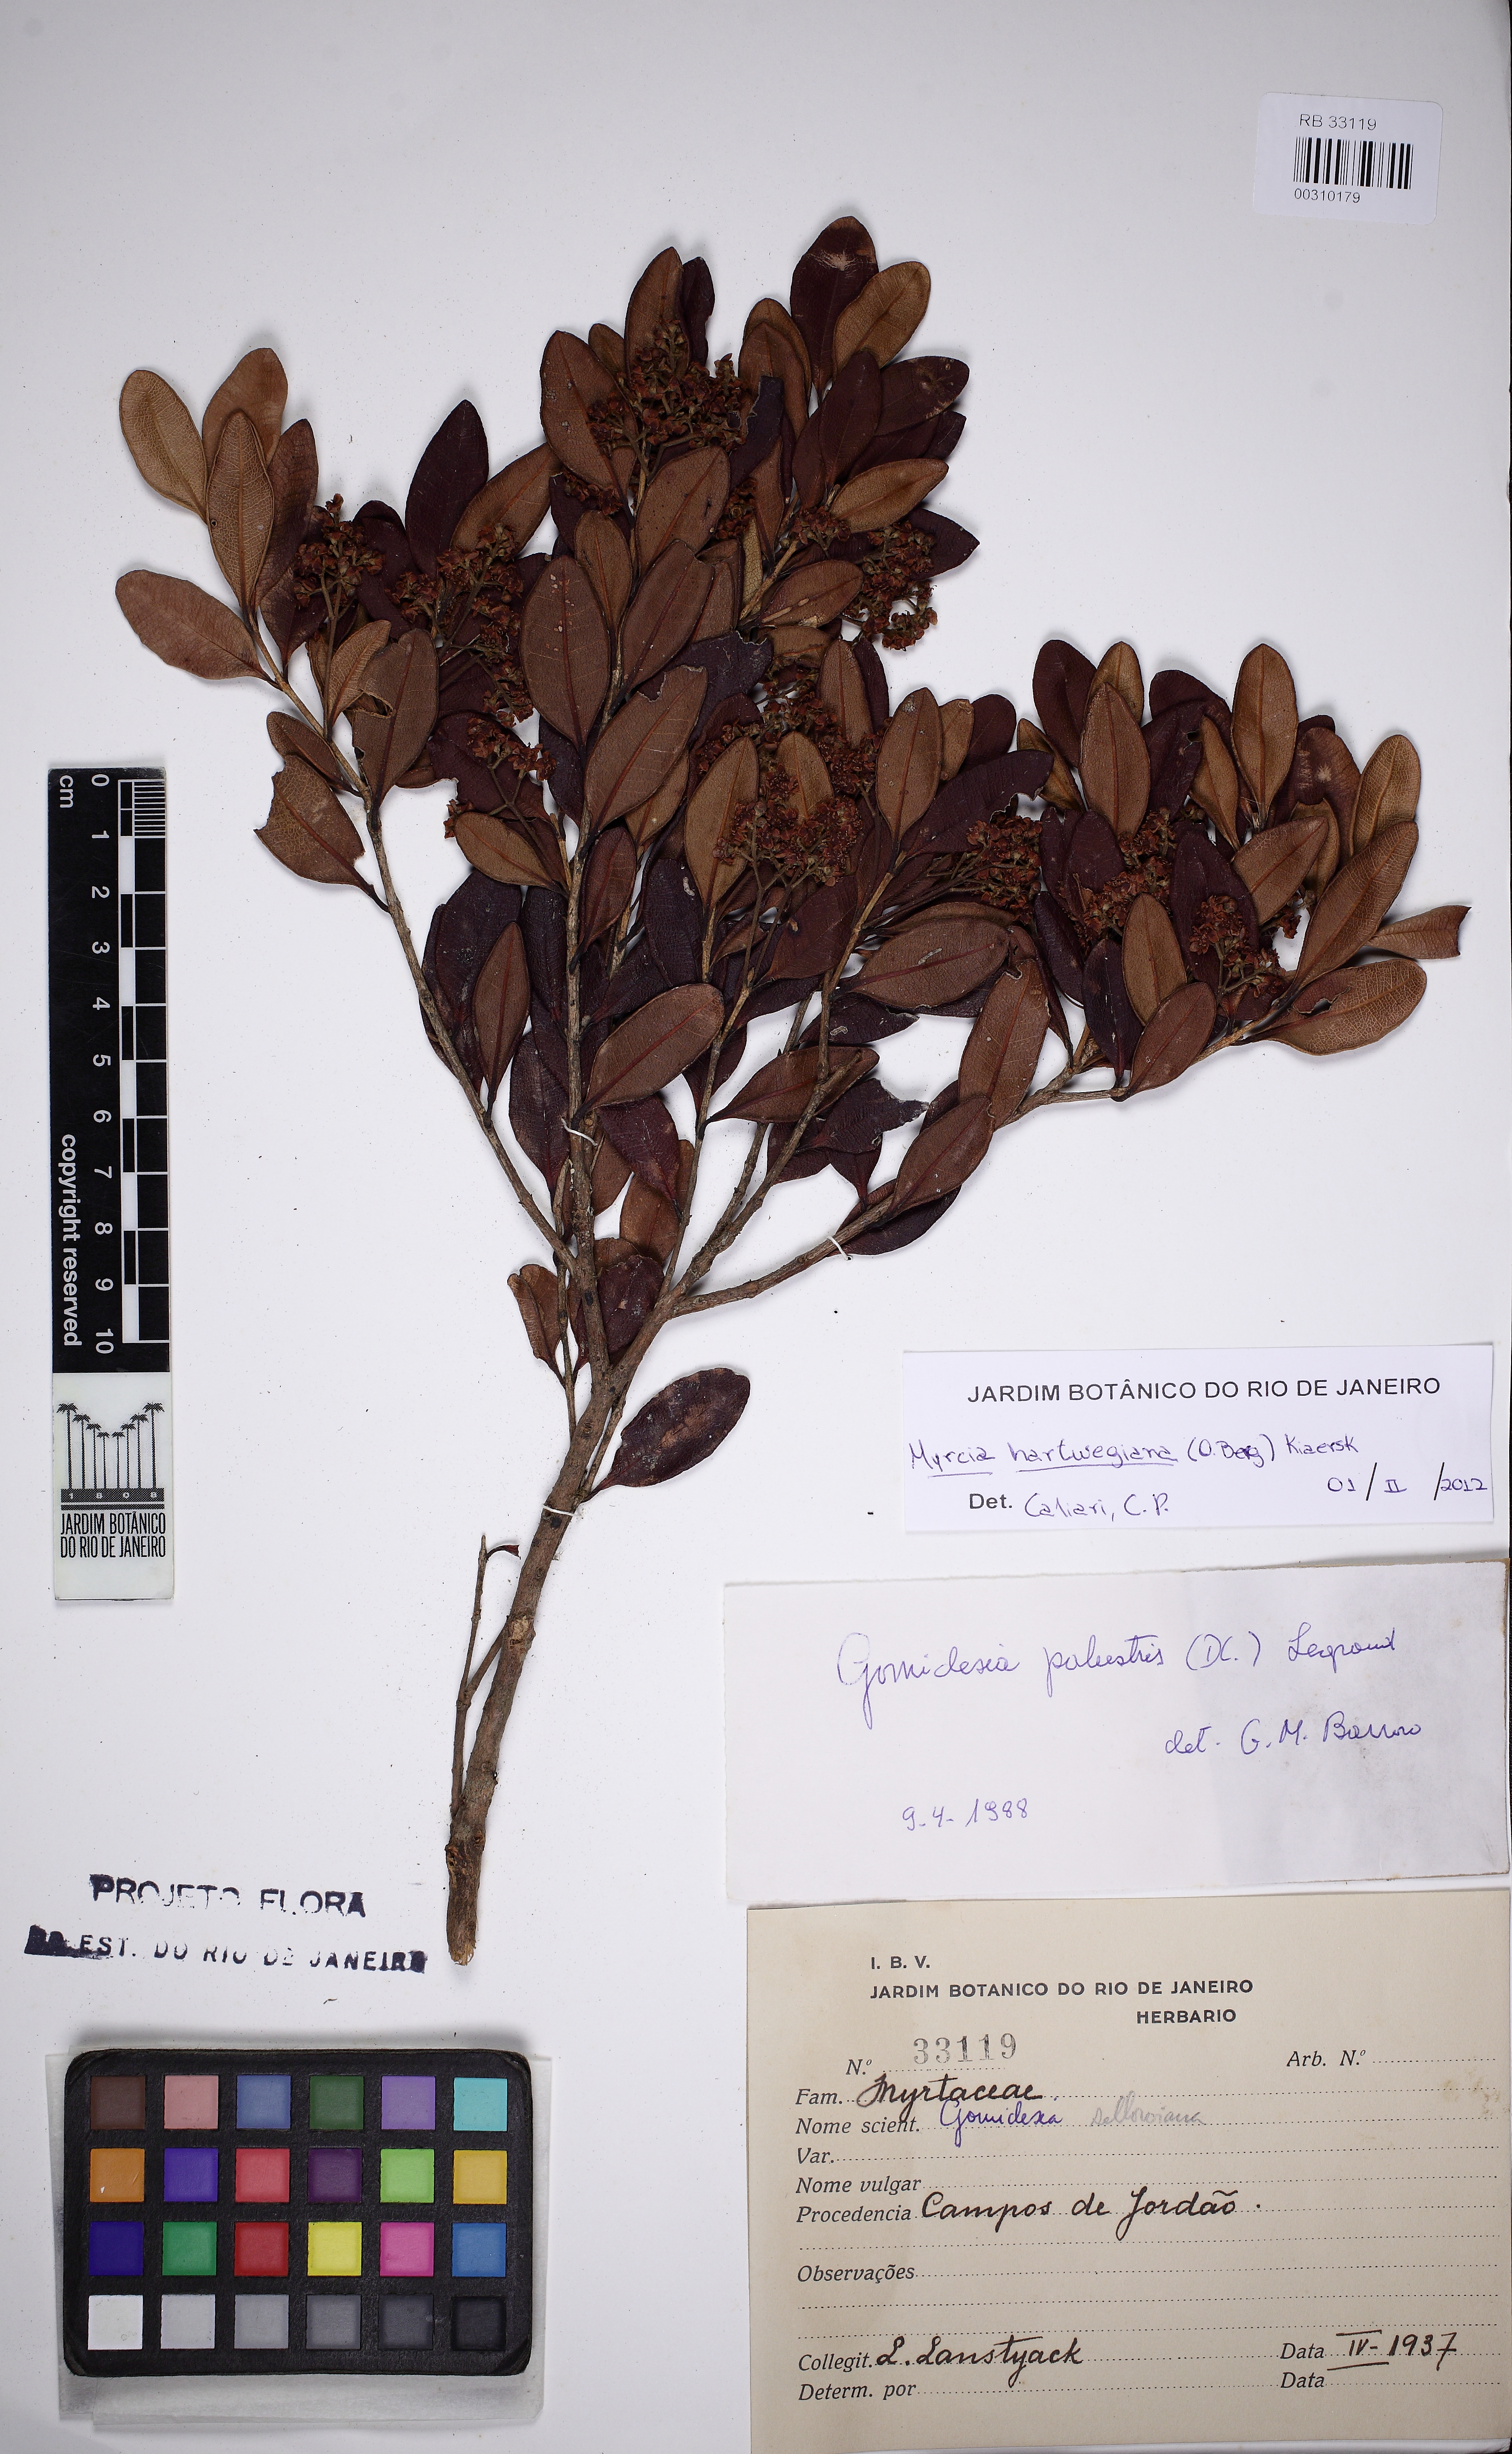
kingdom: Plantae
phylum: Tracheophyta
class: Magnoliopsida
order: Myrtales
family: Myrtaceae
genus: Myrcia
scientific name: Myrcia hartwegiana
